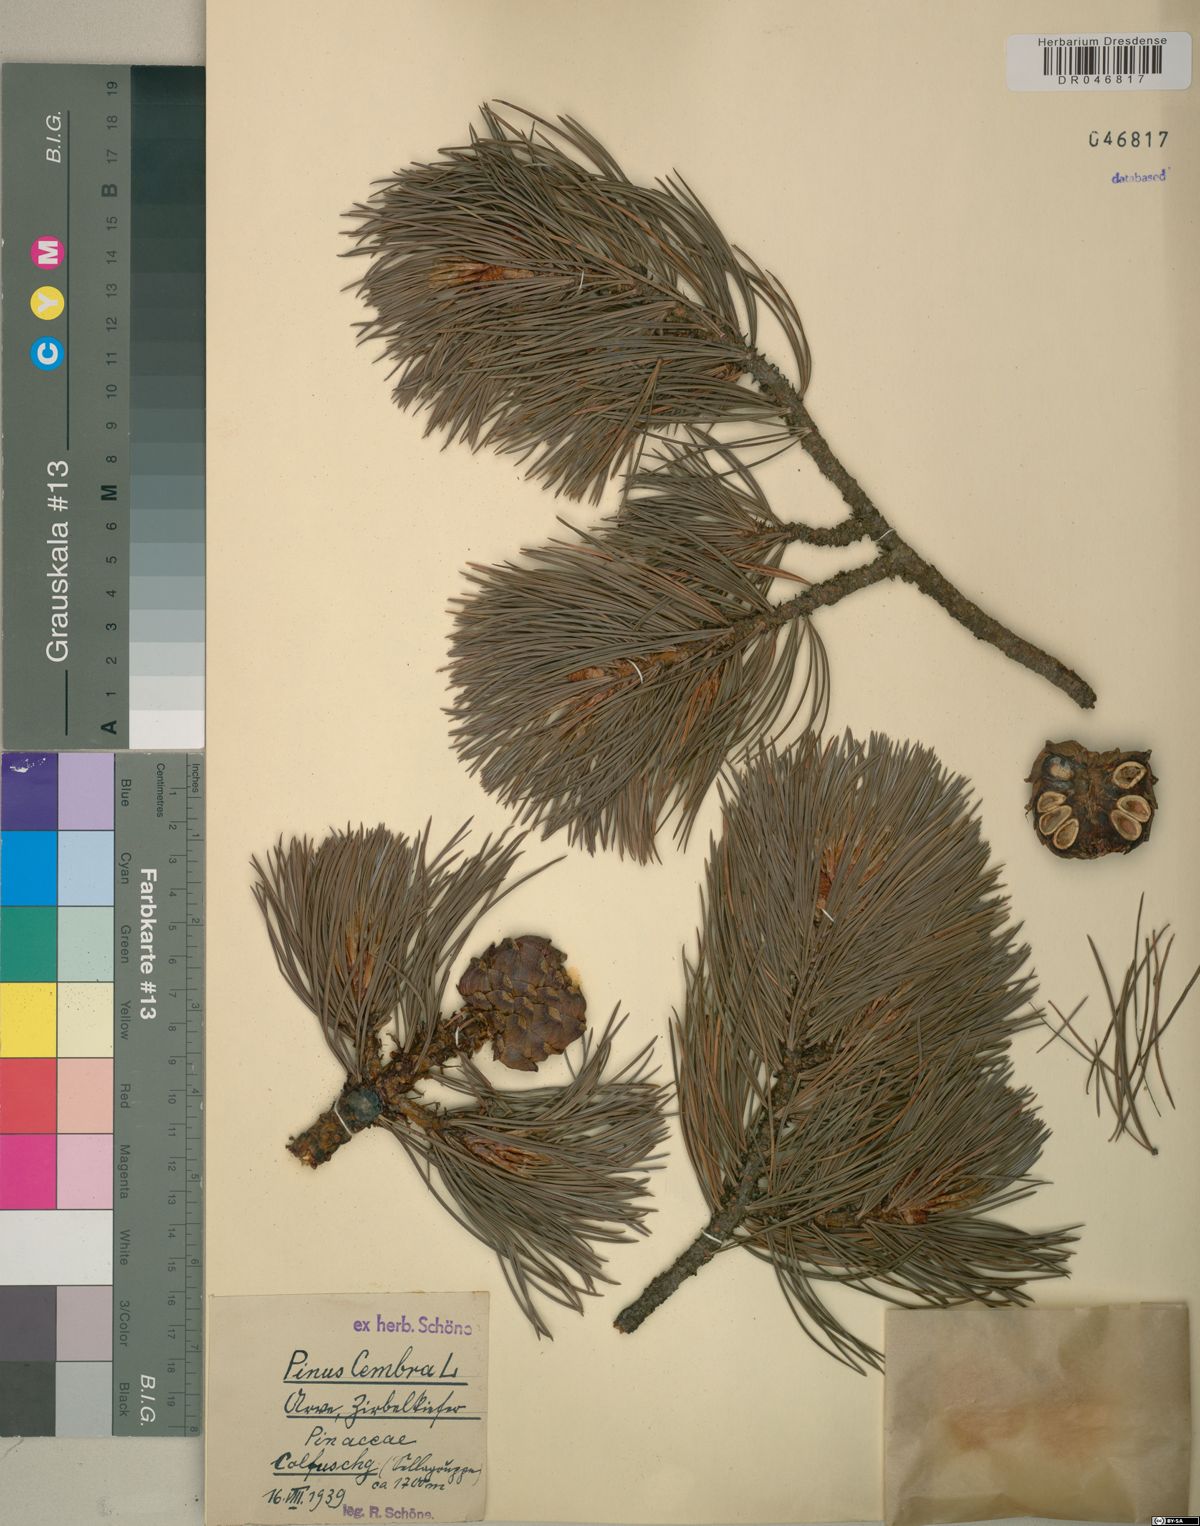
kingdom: Plantae
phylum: Tracheophyta
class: Pinopsida
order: Pinales
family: Pinaceae
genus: Pinus
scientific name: Pinus cembra
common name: Arolla pine
